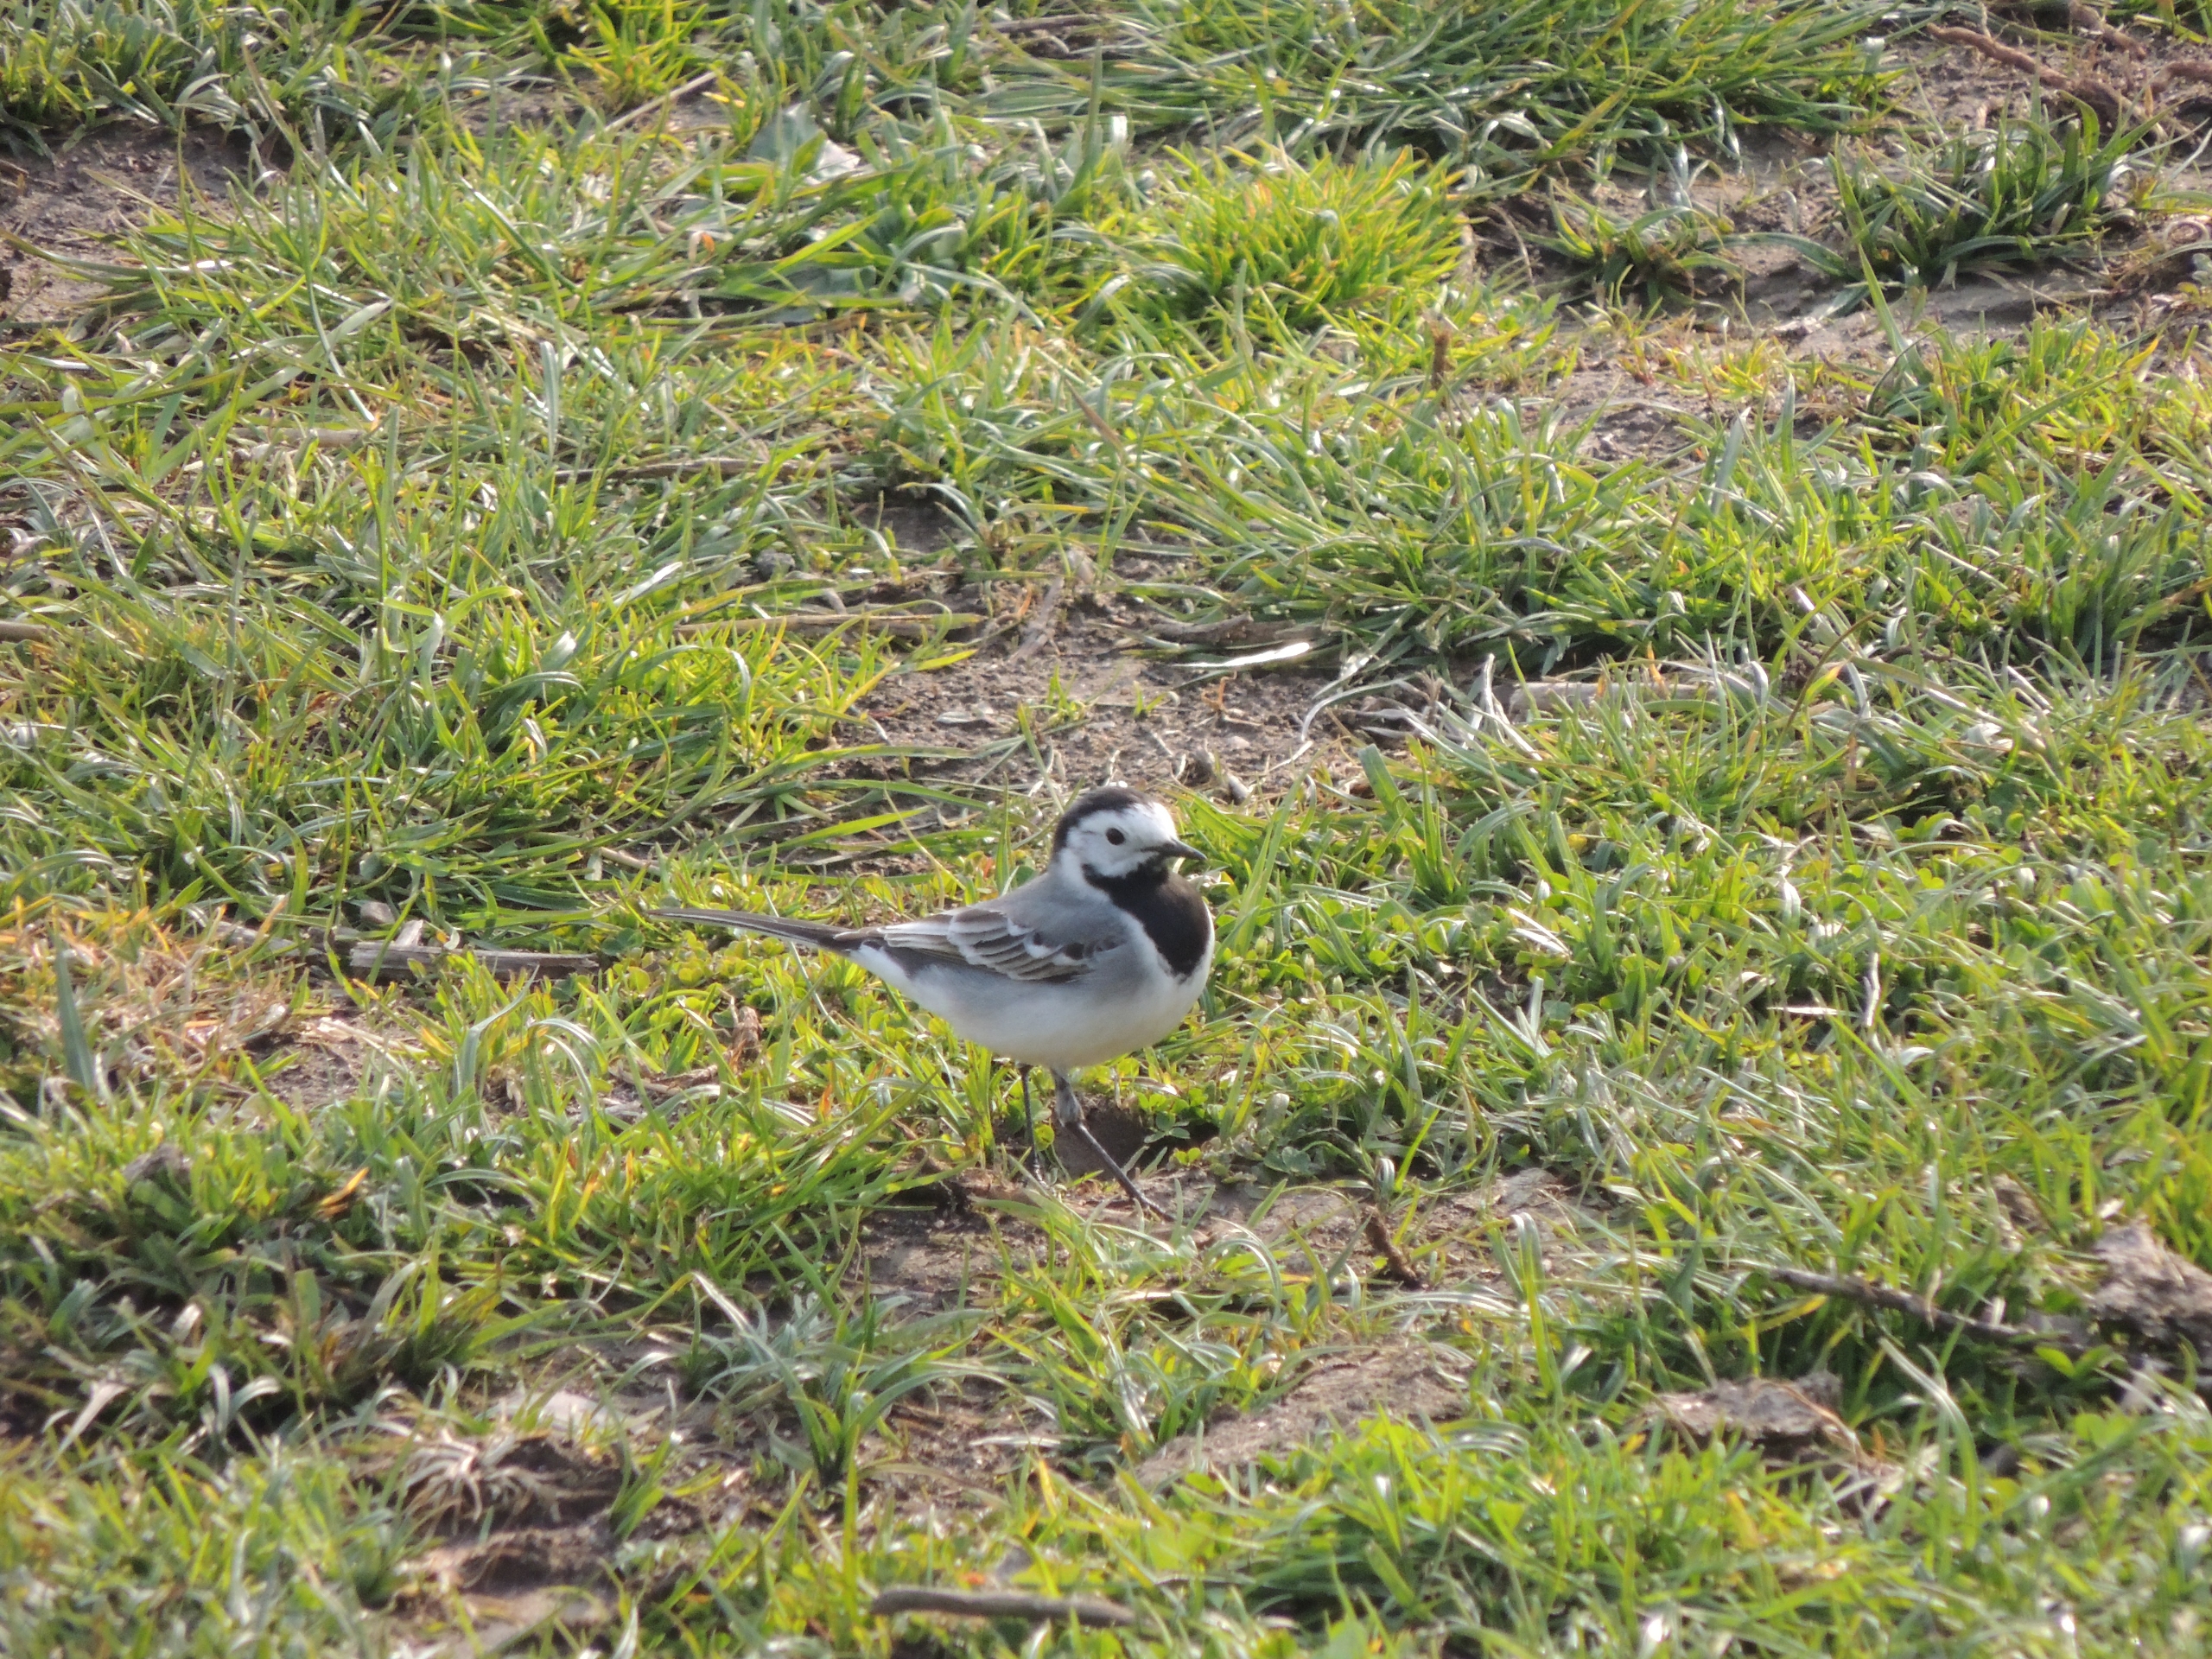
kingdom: Animalia
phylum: Chordata
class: Aves
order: Passeriformes
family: Motacillidae
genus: Motacilla
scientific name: Motacilla alba
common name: Hvid vipstjert
